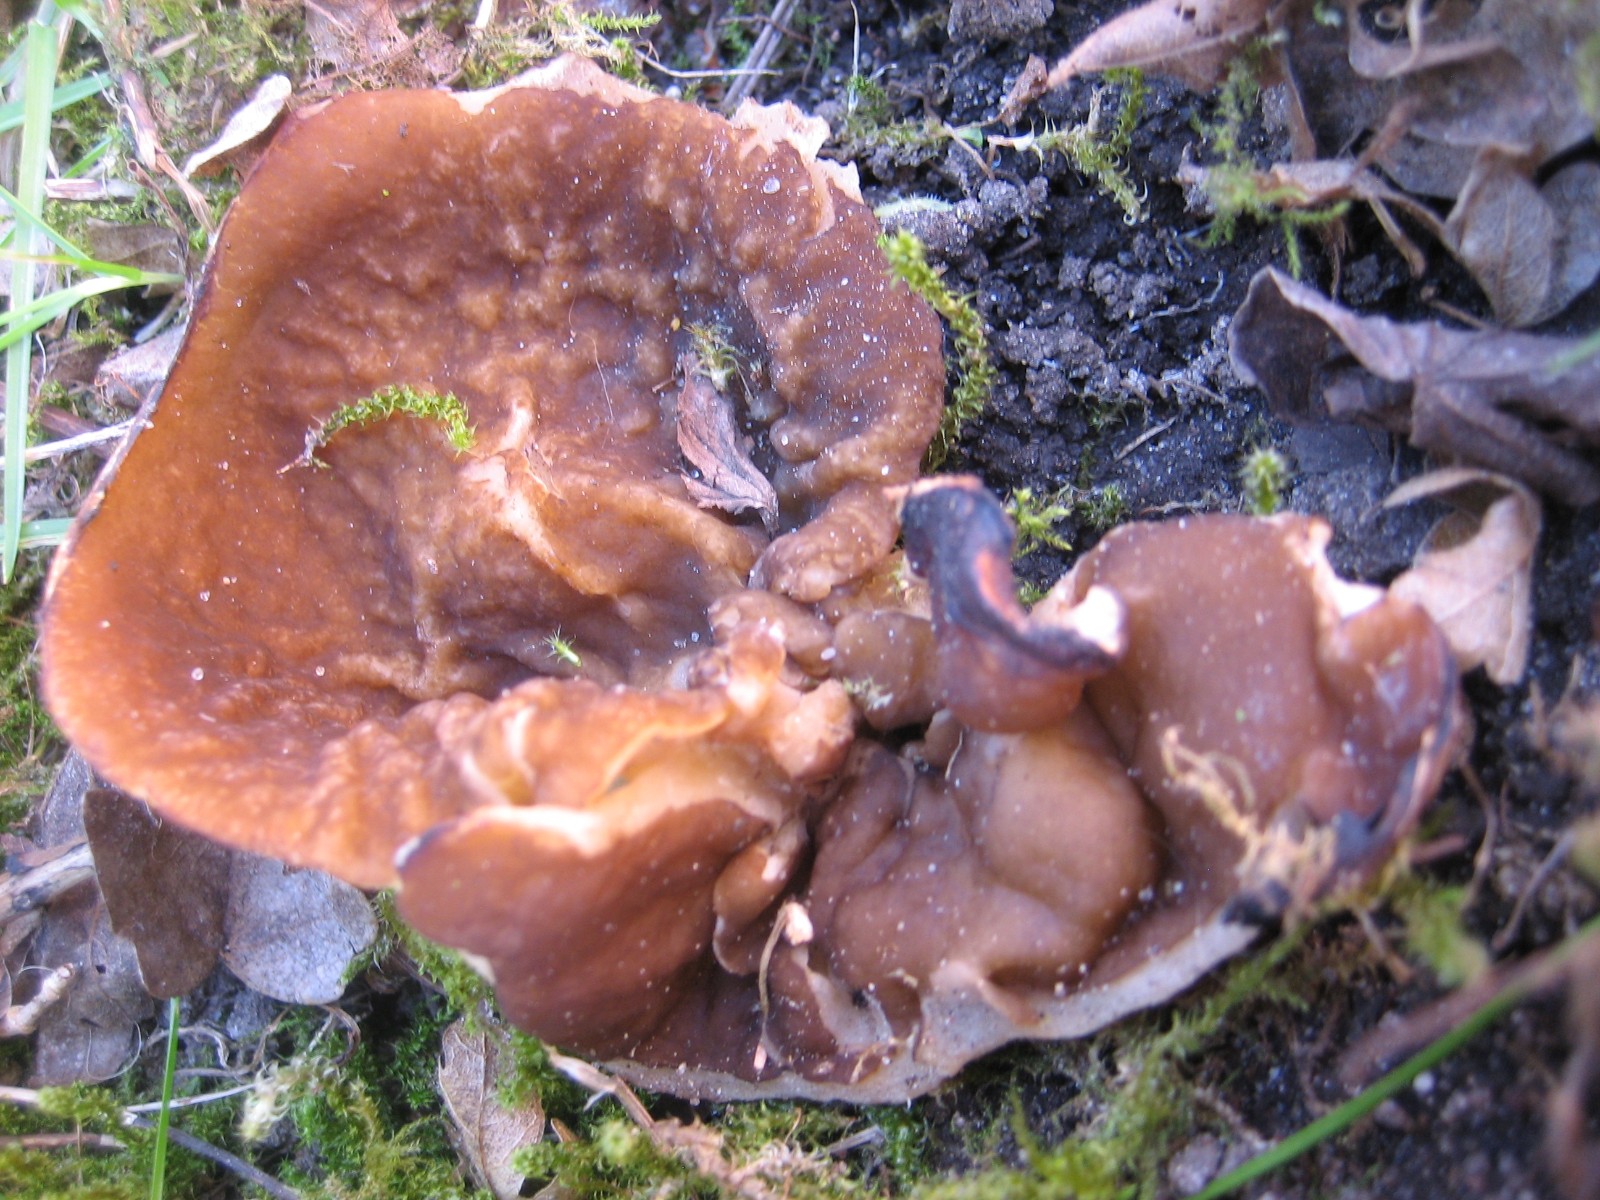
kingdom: Fungi
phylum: Ascomycota
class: Pezizomycetes
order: Pezizales
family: Morchellaceae
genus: Disciotis
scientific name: Disciotis venosa
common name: klor-bægermorkel
